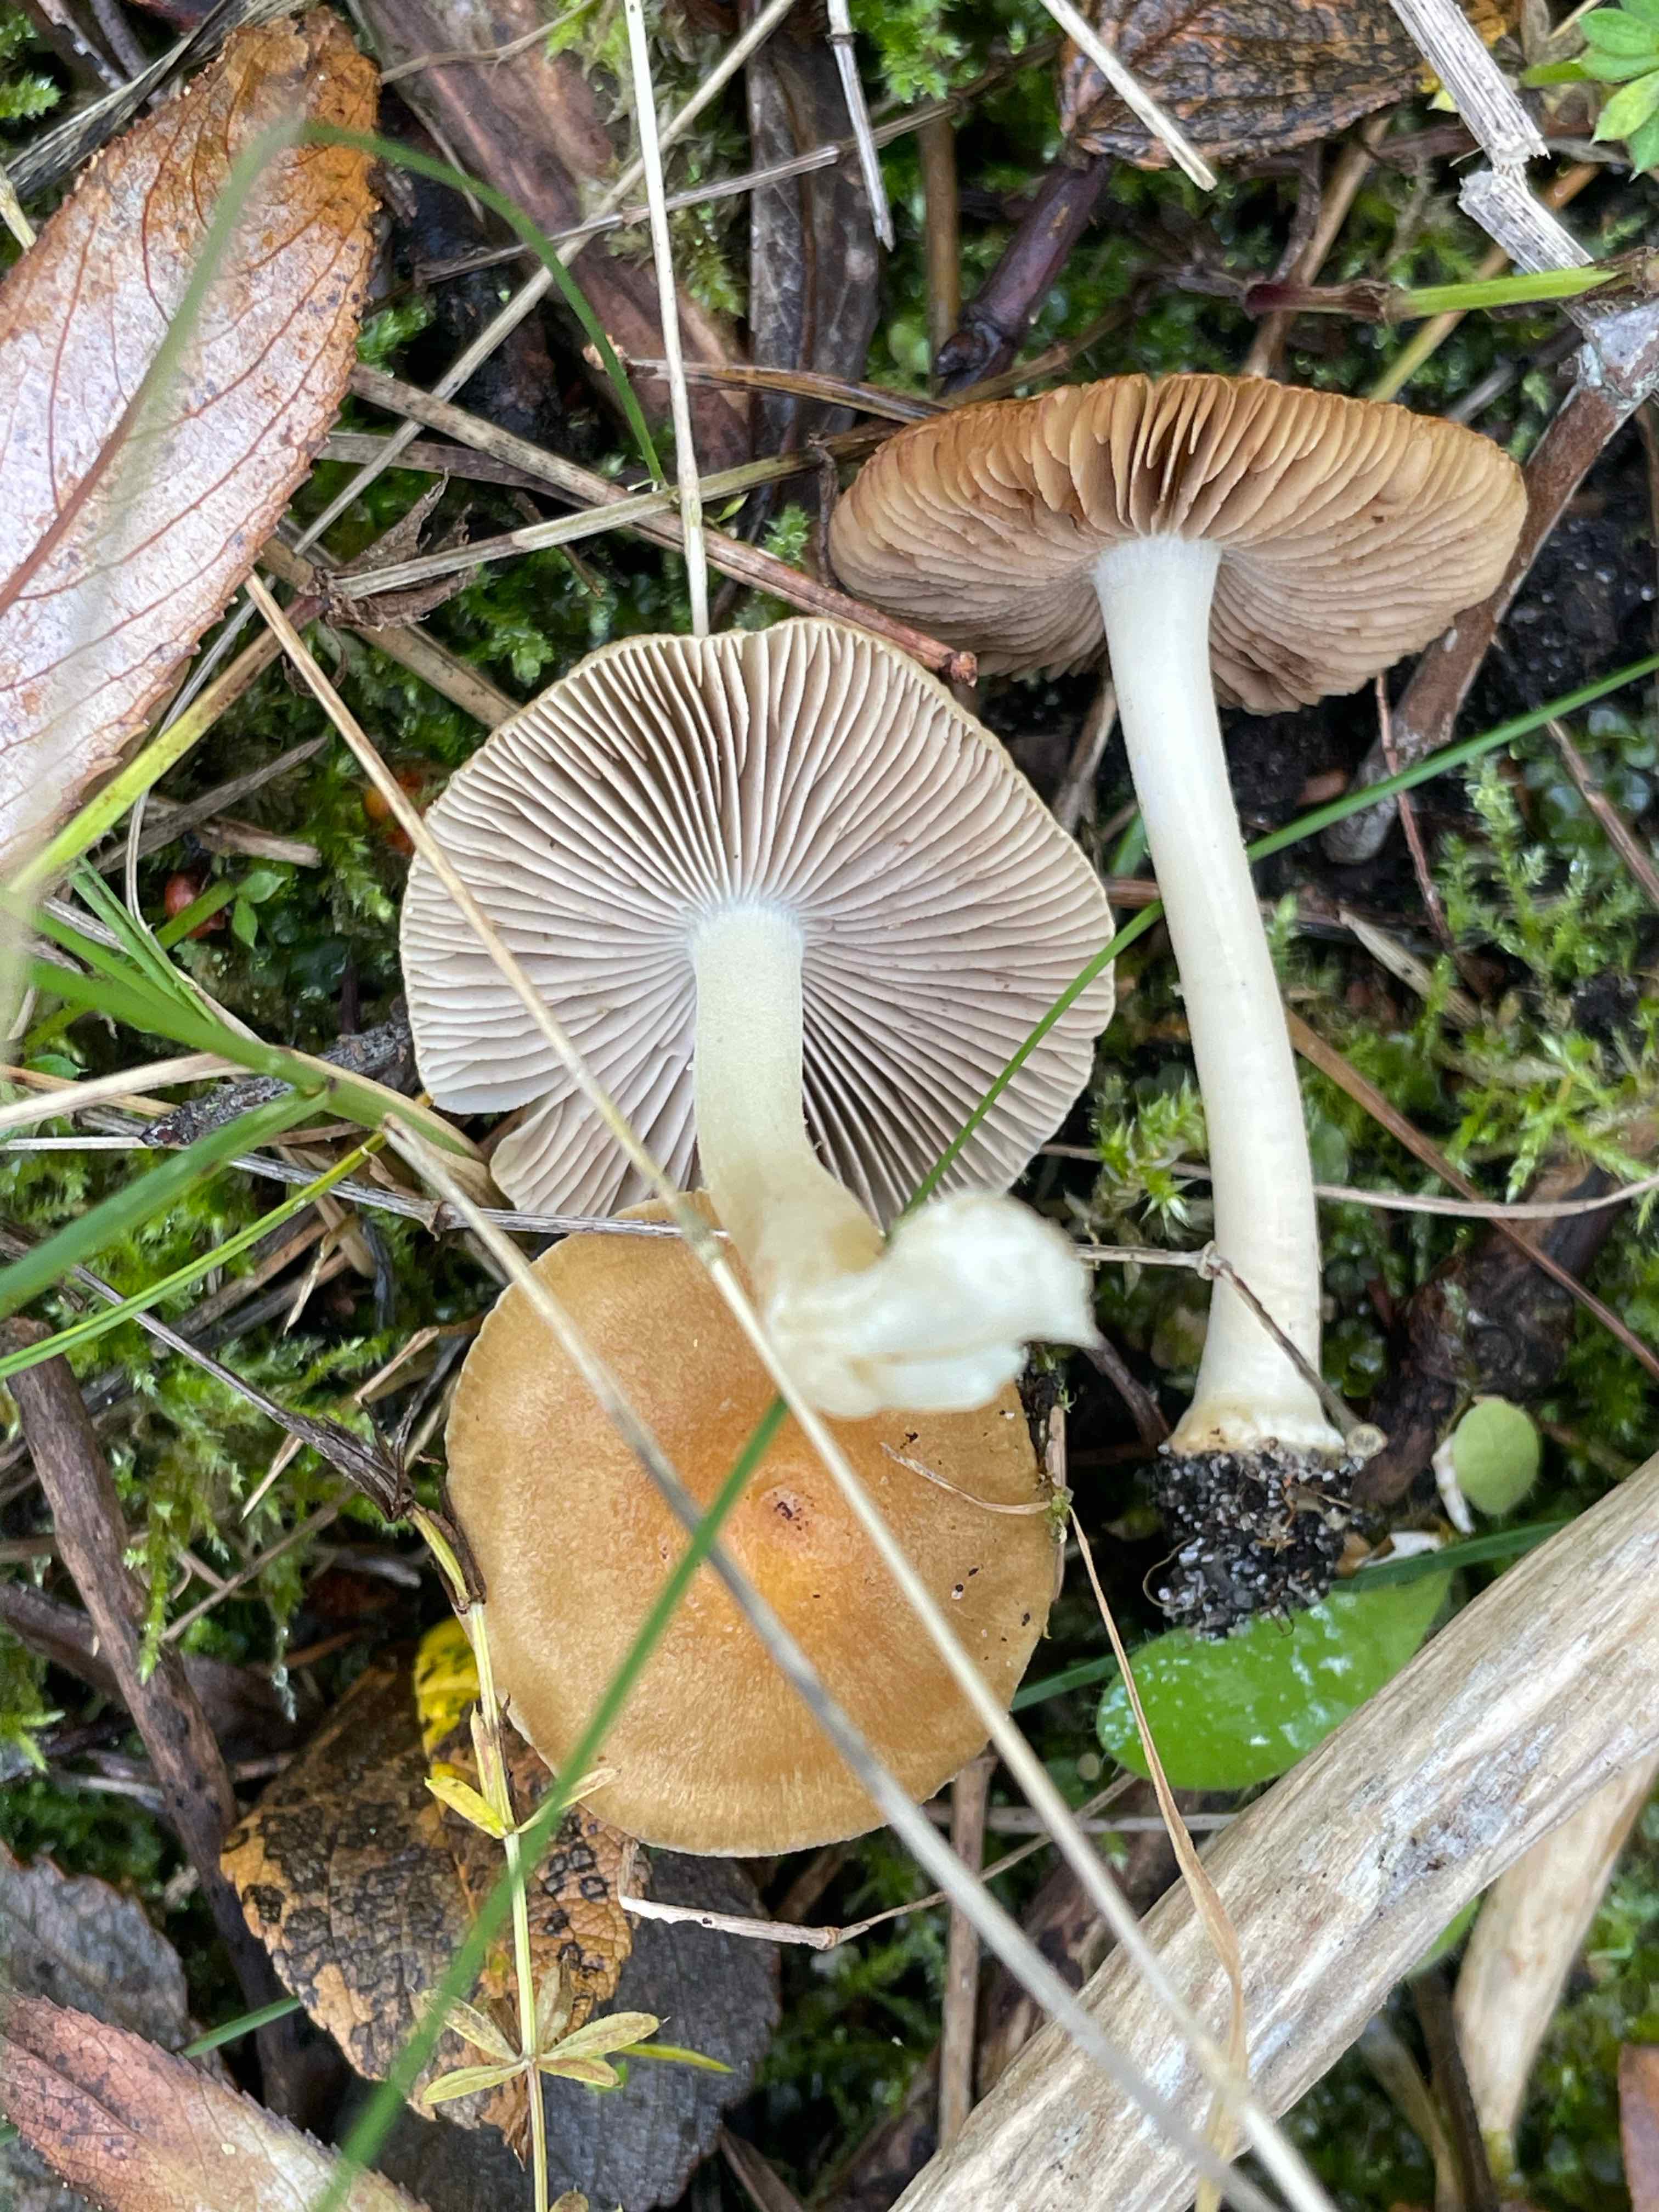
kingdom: Fungi
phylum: Basidiomycota
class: Agaricomycetes
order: Agaricales
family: Inocybaceae
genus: Inocybe
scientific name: Inocybe mixtilis
